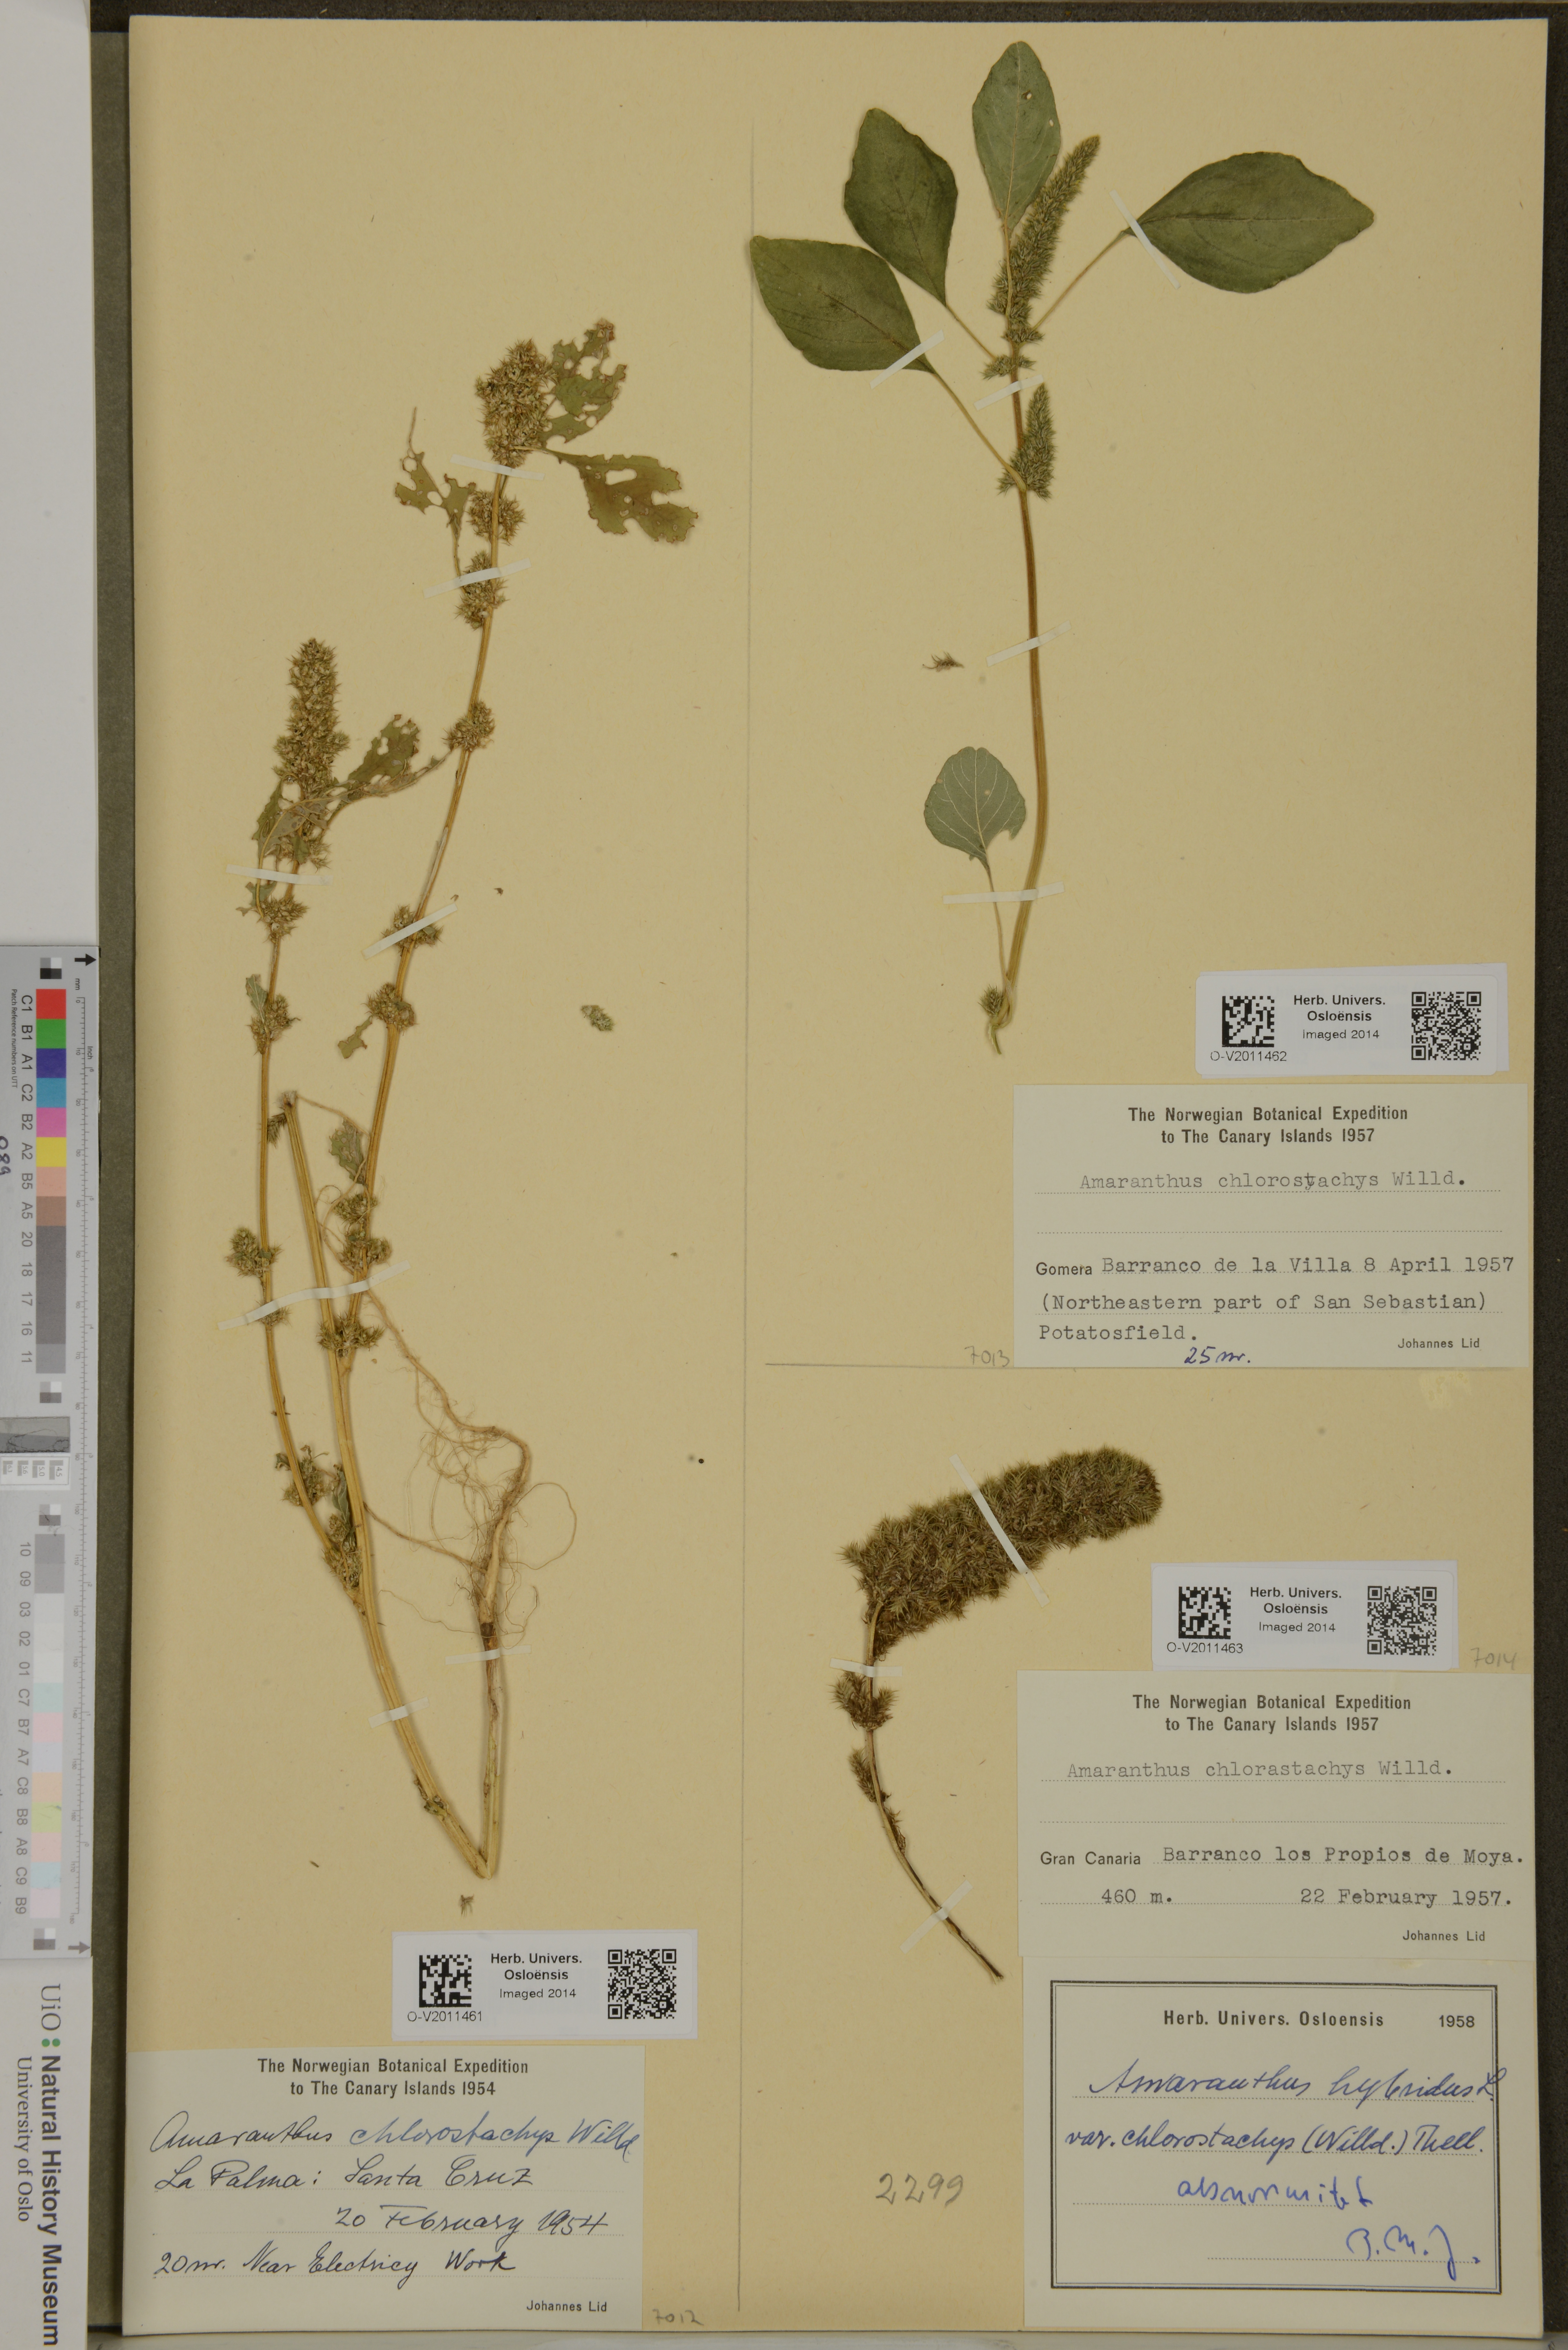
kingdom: Plantae
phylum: Tracheophyta
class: Magnoliopsida
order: Caryophyllales
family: Amaranthaceae
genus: Amaranthus
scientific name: Amaranthus
